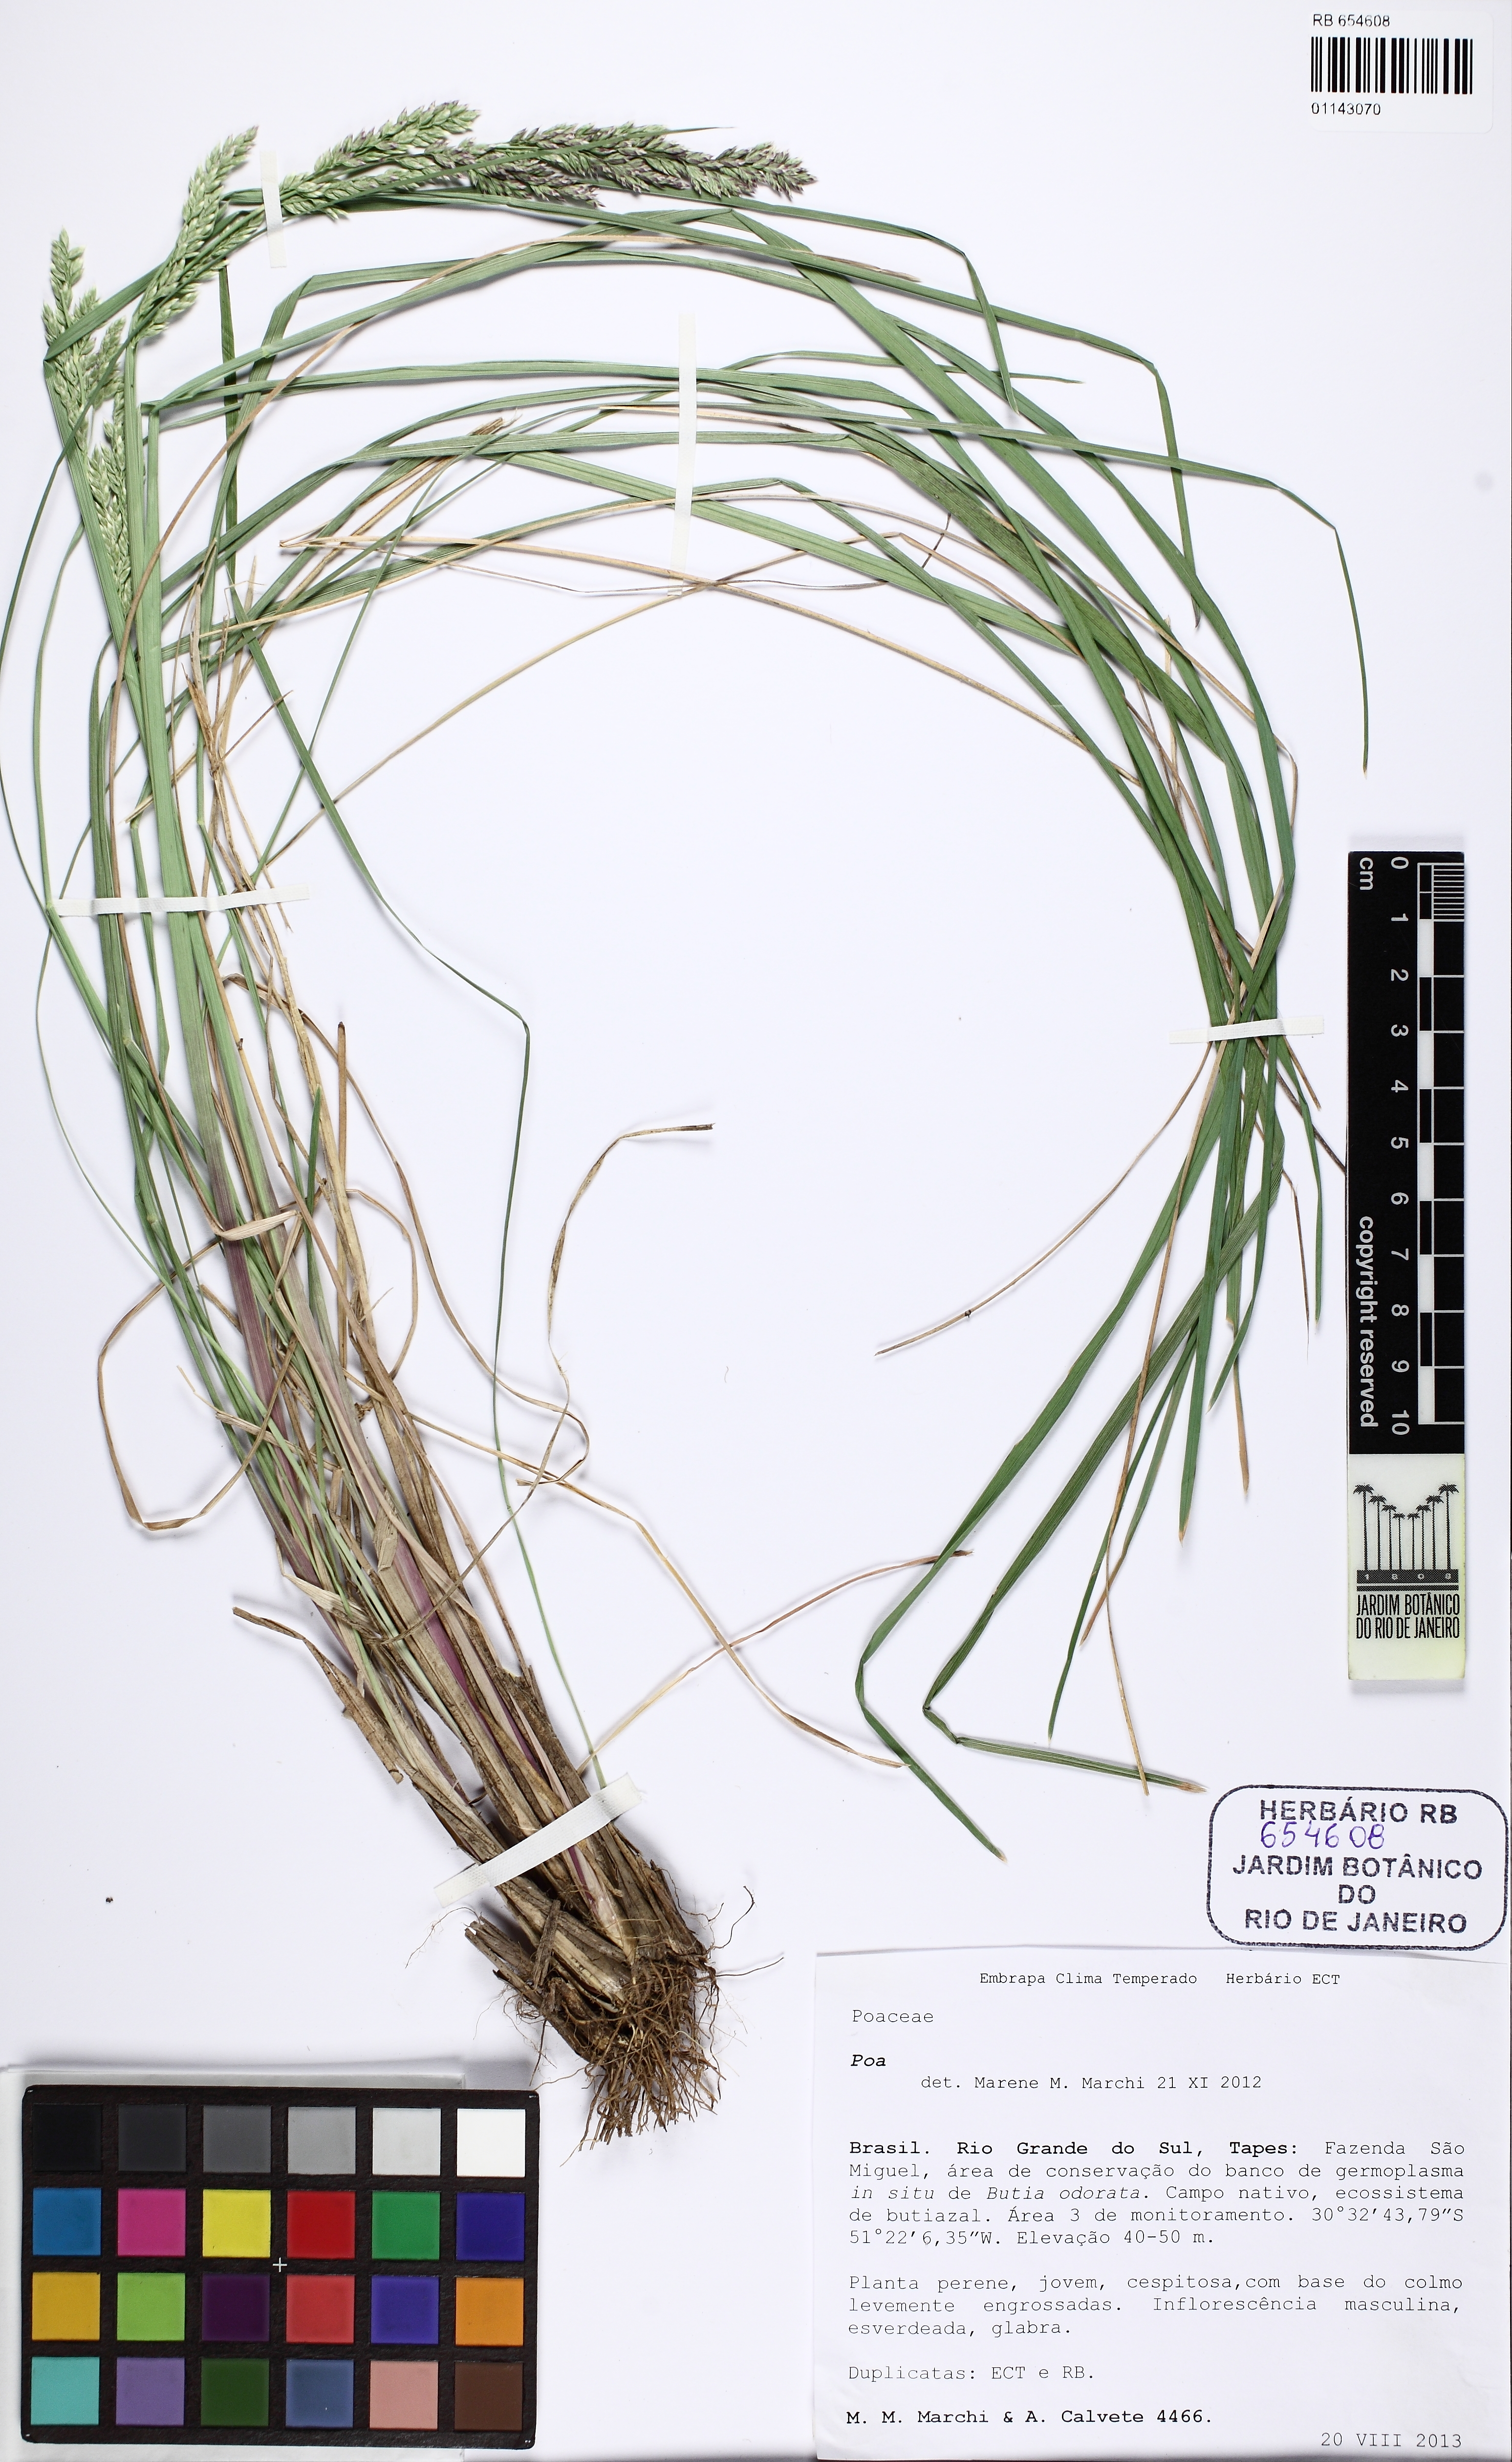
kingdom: Plantae
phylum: Tracheophyta
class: Liliopsida
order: Poales
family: Poaceae
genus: Poa
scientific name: Poa
